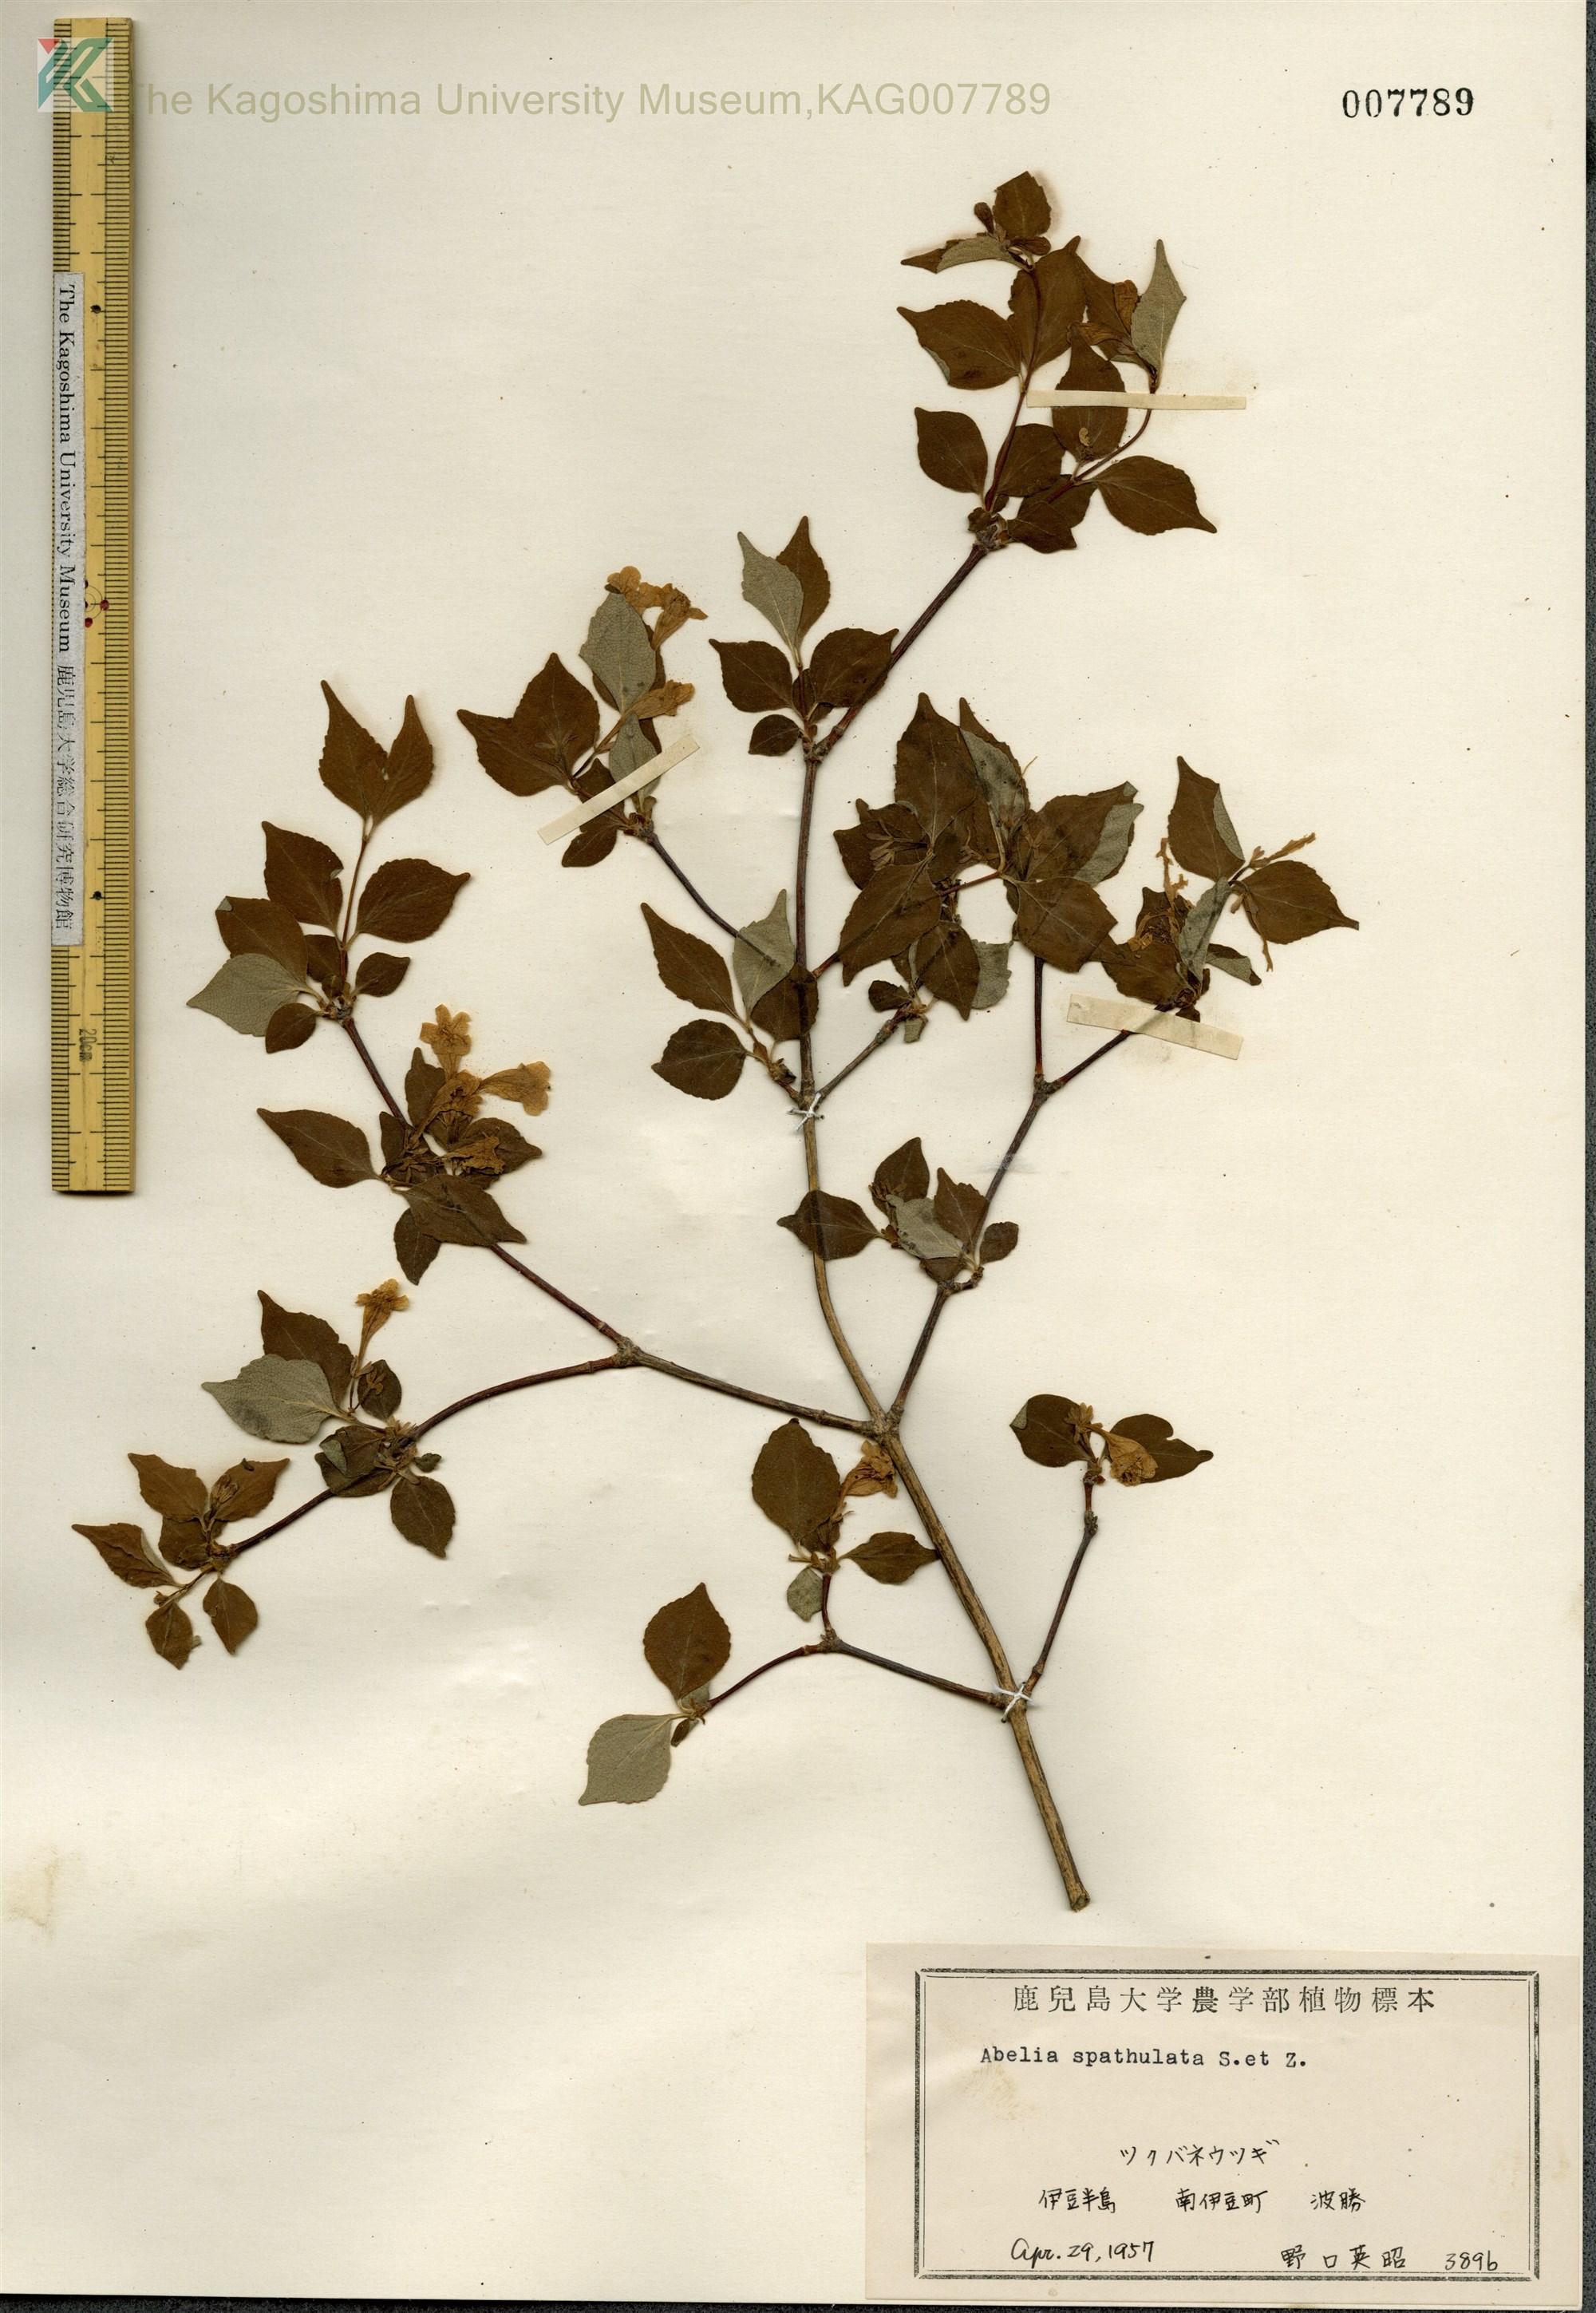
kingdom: Plantae
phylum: Tracheophyta
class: Magnoliopsida
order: Dipsacales
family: Caprifoliaceae
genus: Diabelia
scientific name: Diabelia spathulata
